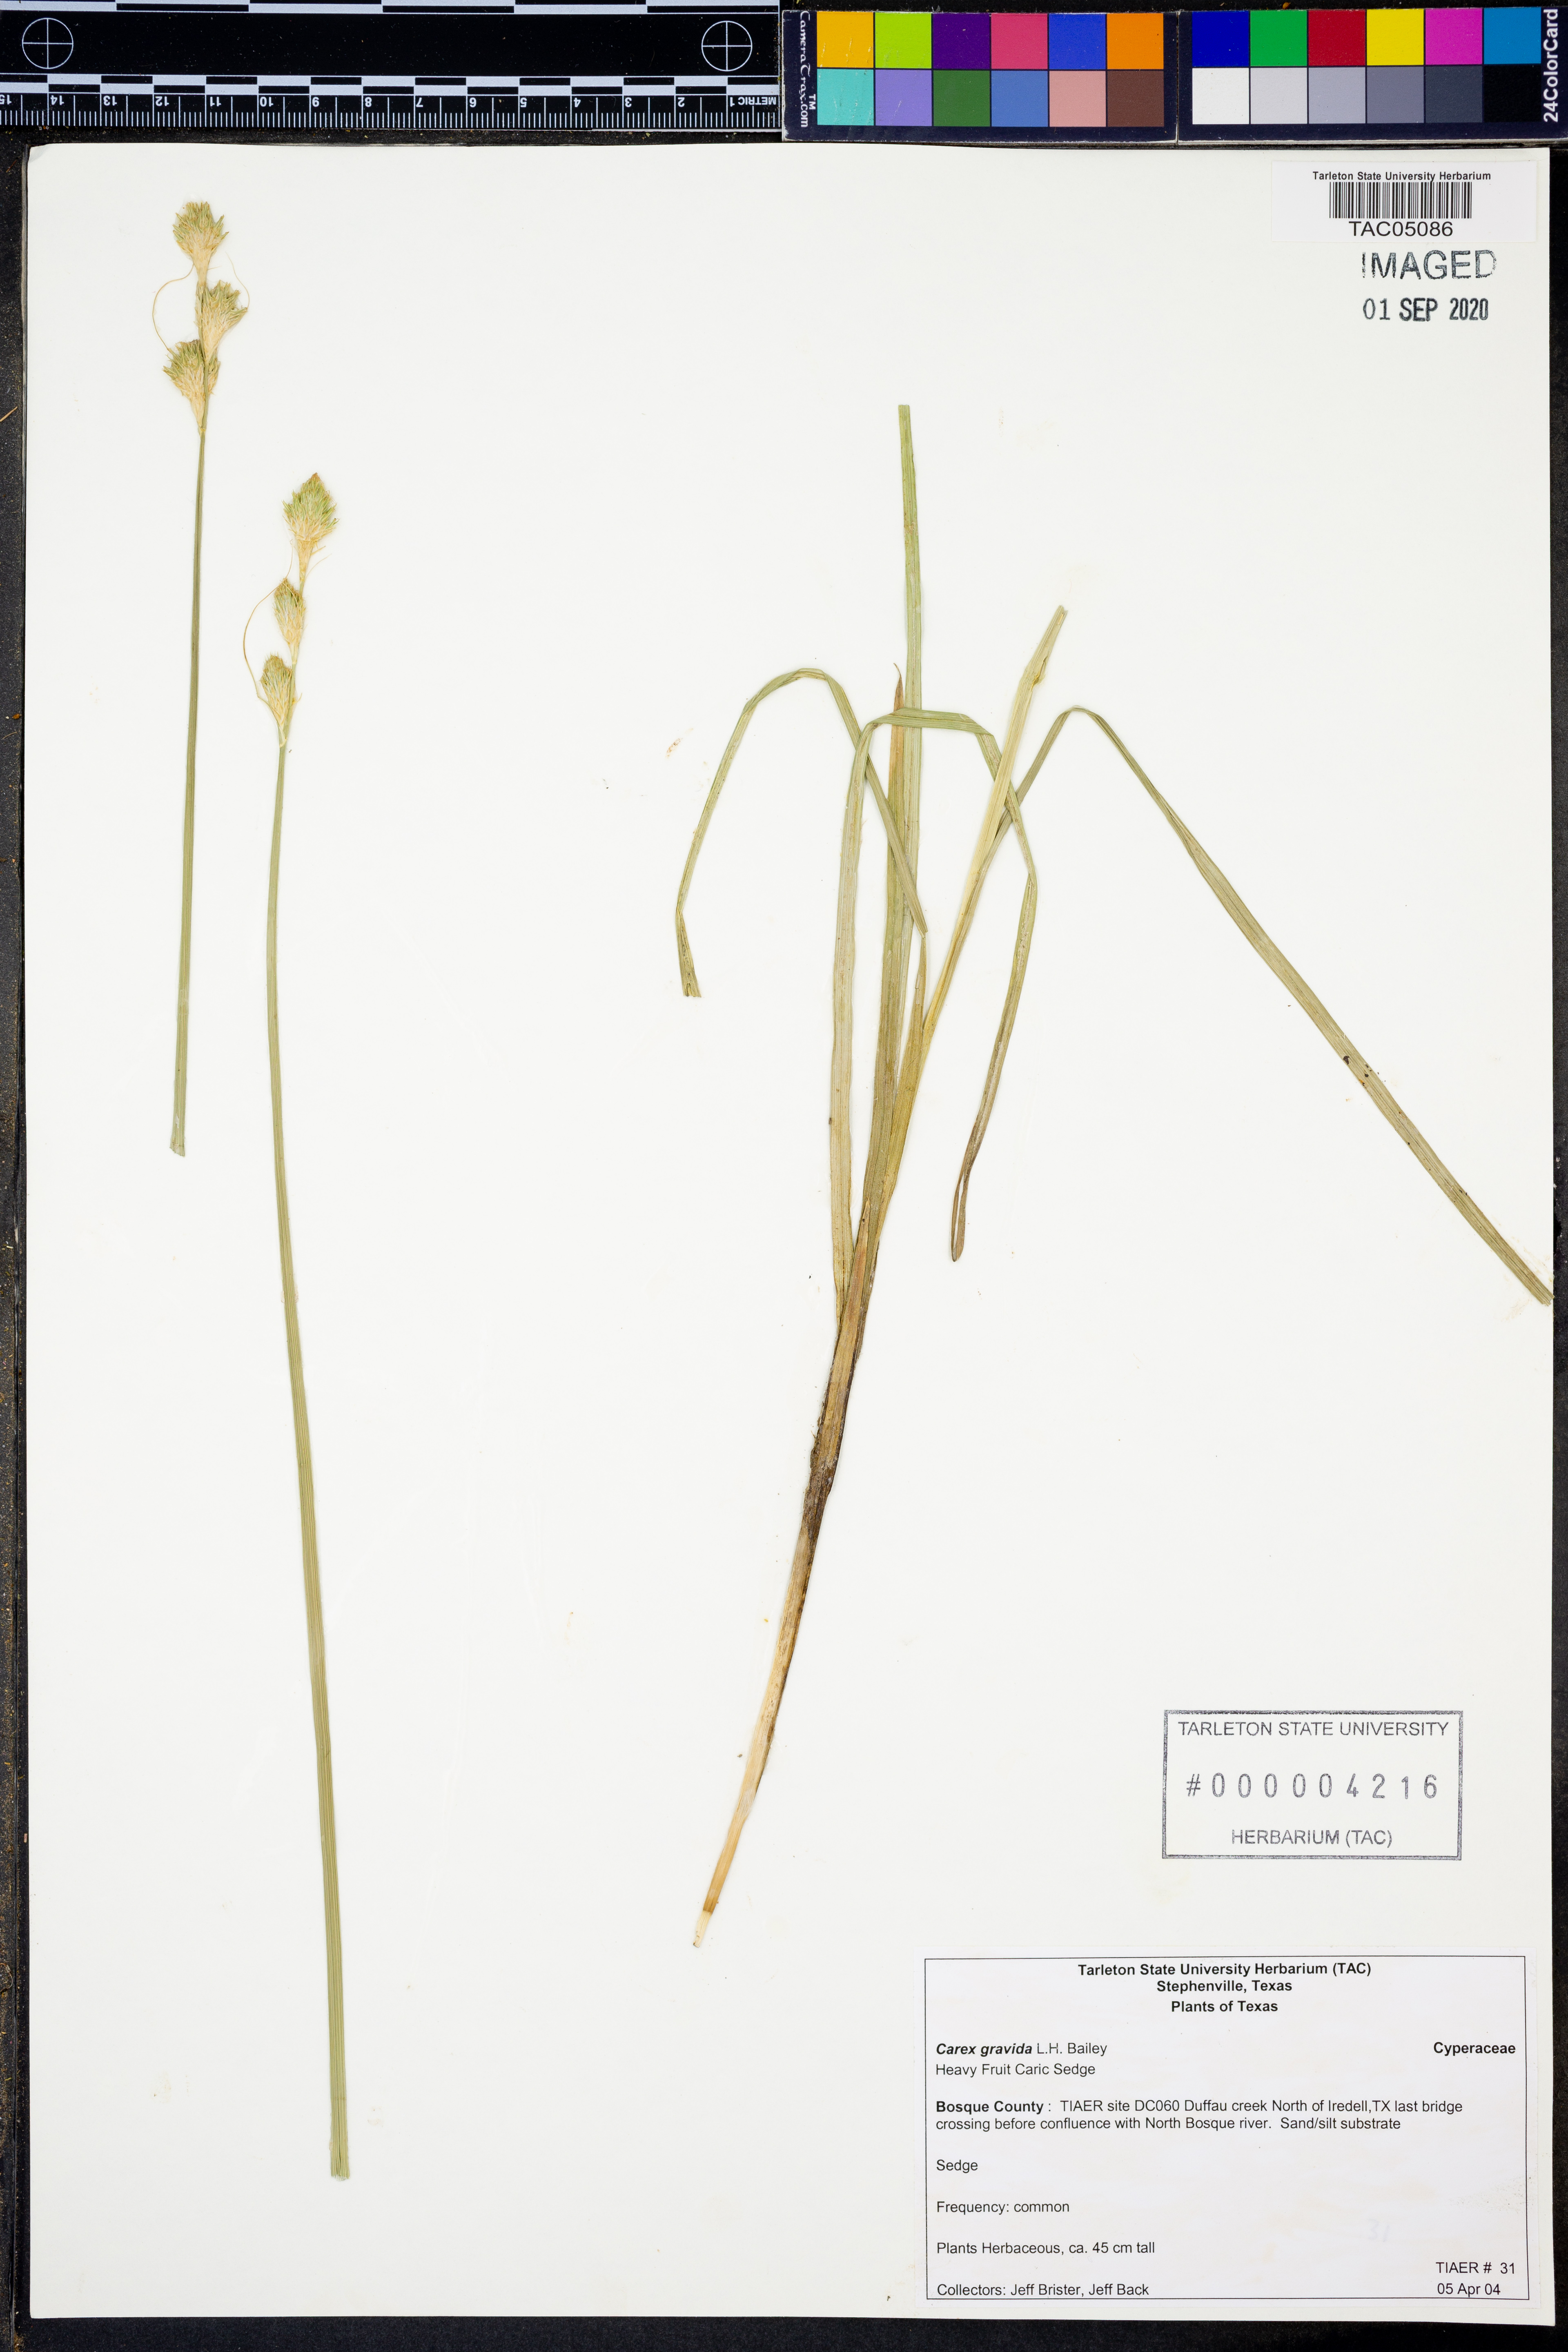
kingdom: Plantae
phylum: Tracheophyta
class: Liliopsida
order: Poales
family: Cyperaceae
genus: Carex
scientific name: Carex gravida
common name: Heavy sedge
